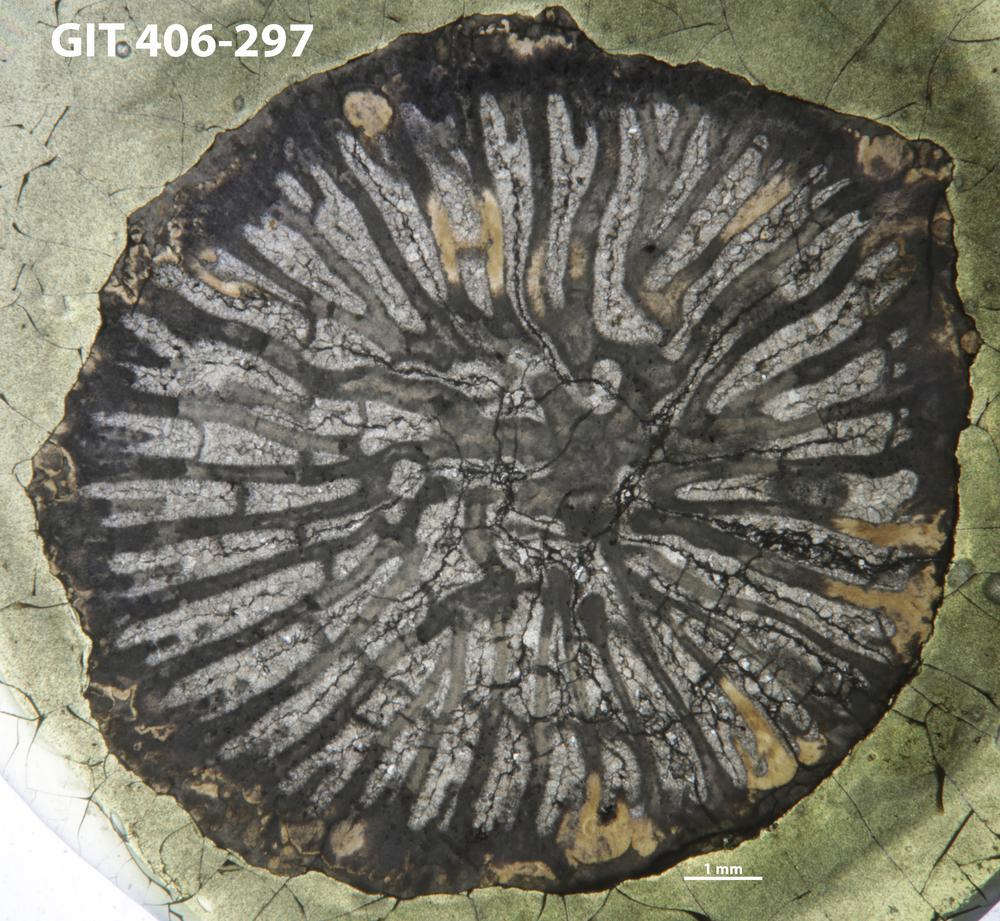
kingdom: Animalia
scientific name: Animalia
